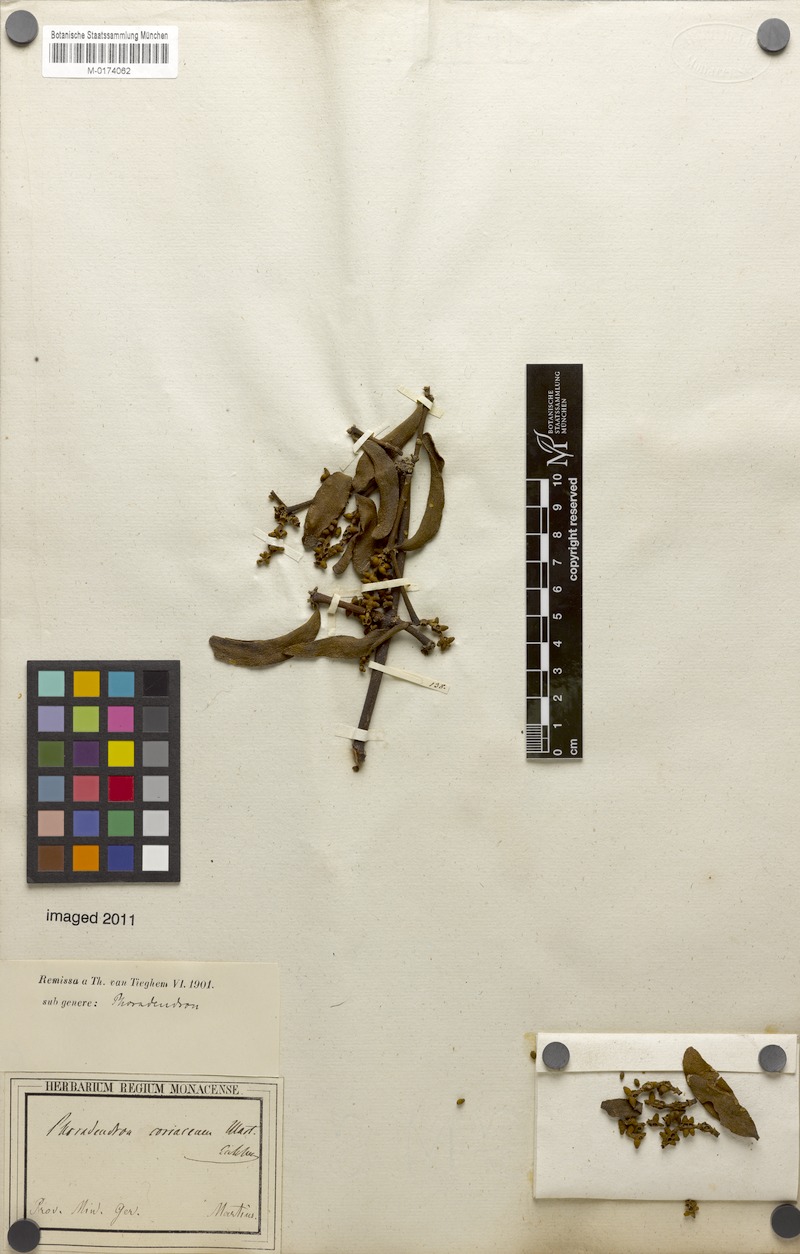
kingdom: Plantae
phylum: Tracheophyta
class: Magnoliopsida
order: Santalales
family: Viscaceae
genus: Phoradendron
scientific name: Phoradendron coriaceum
